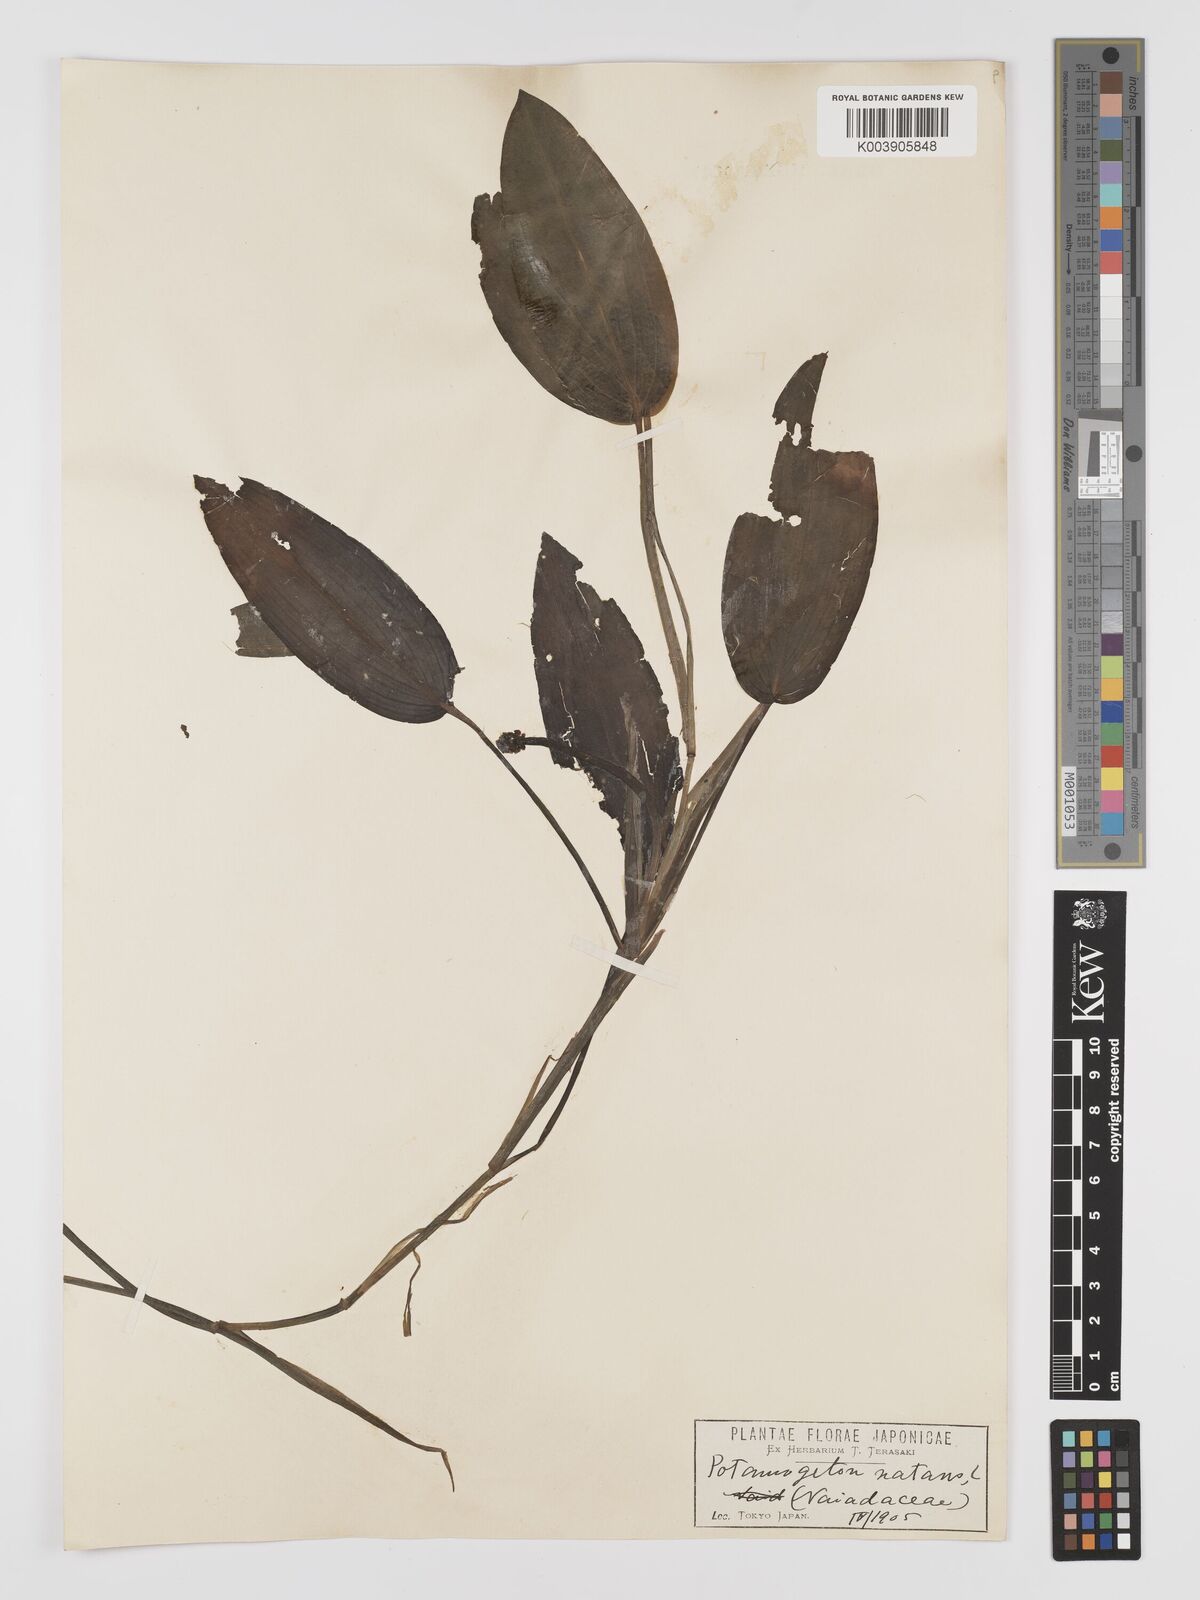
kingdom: Plantae
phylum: Tracheophyta
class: Liliopsida
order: Alismatales
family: Potamogetonaceae
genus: Potamogeton
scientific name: Potamogeton natans
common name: Broad-leaved pondweed
